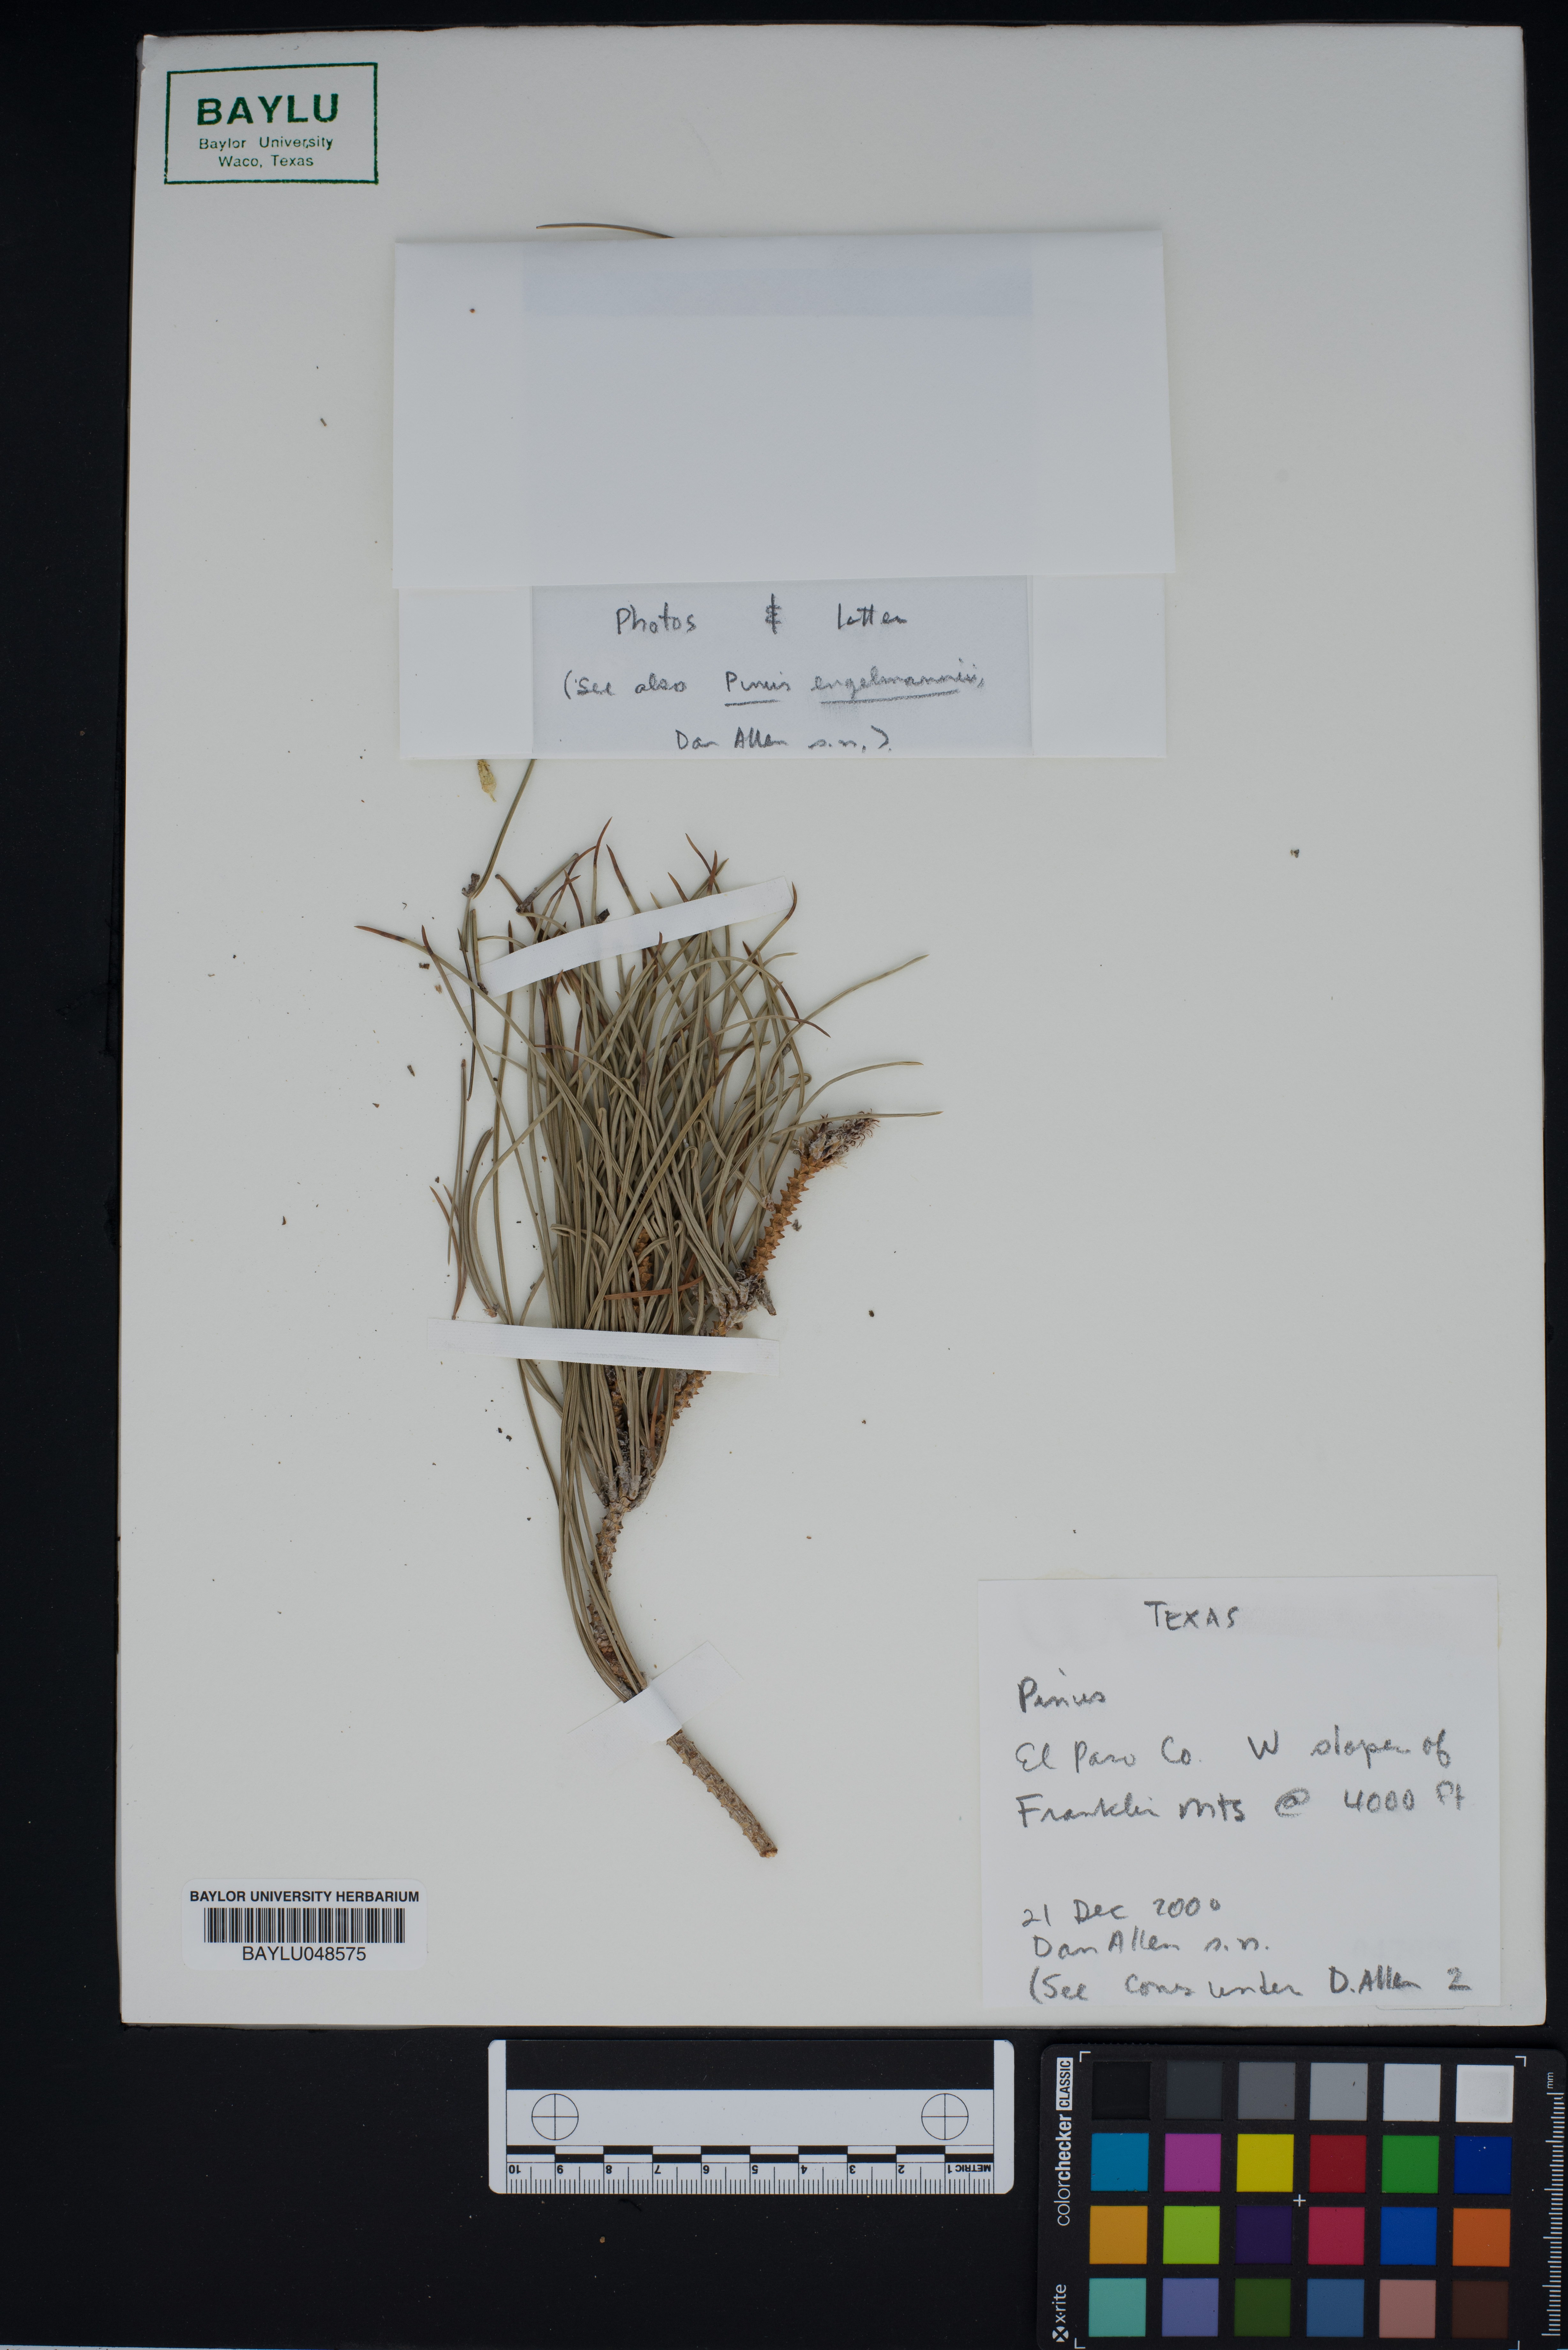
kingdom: Plantae
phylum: Tracheophyta
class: Pinopsida
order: Pinales
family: Pinaceae
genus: Pinus
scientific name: Pinus
